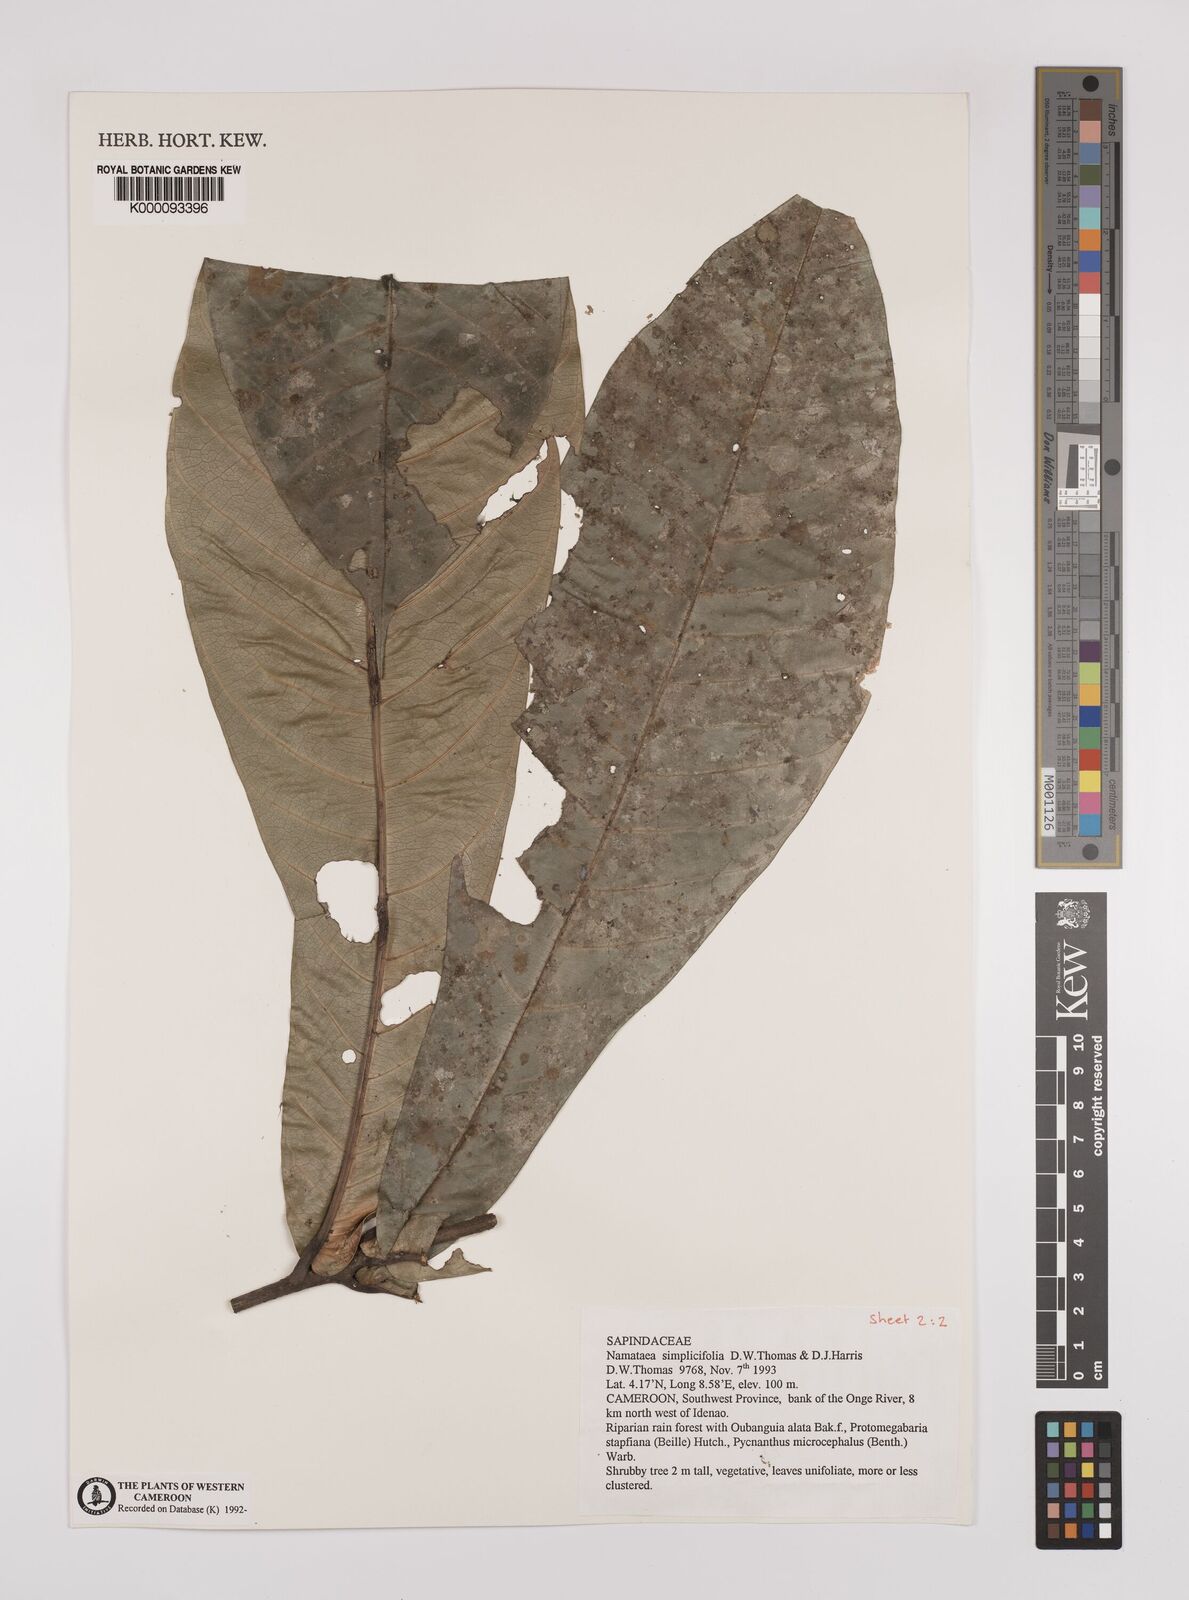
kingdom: Plantae
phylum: Tracheophyta
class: Magnoliopsida
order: Sapindales
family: Sapindaceae
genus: Namataea
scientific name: Namataea simplicifolia
